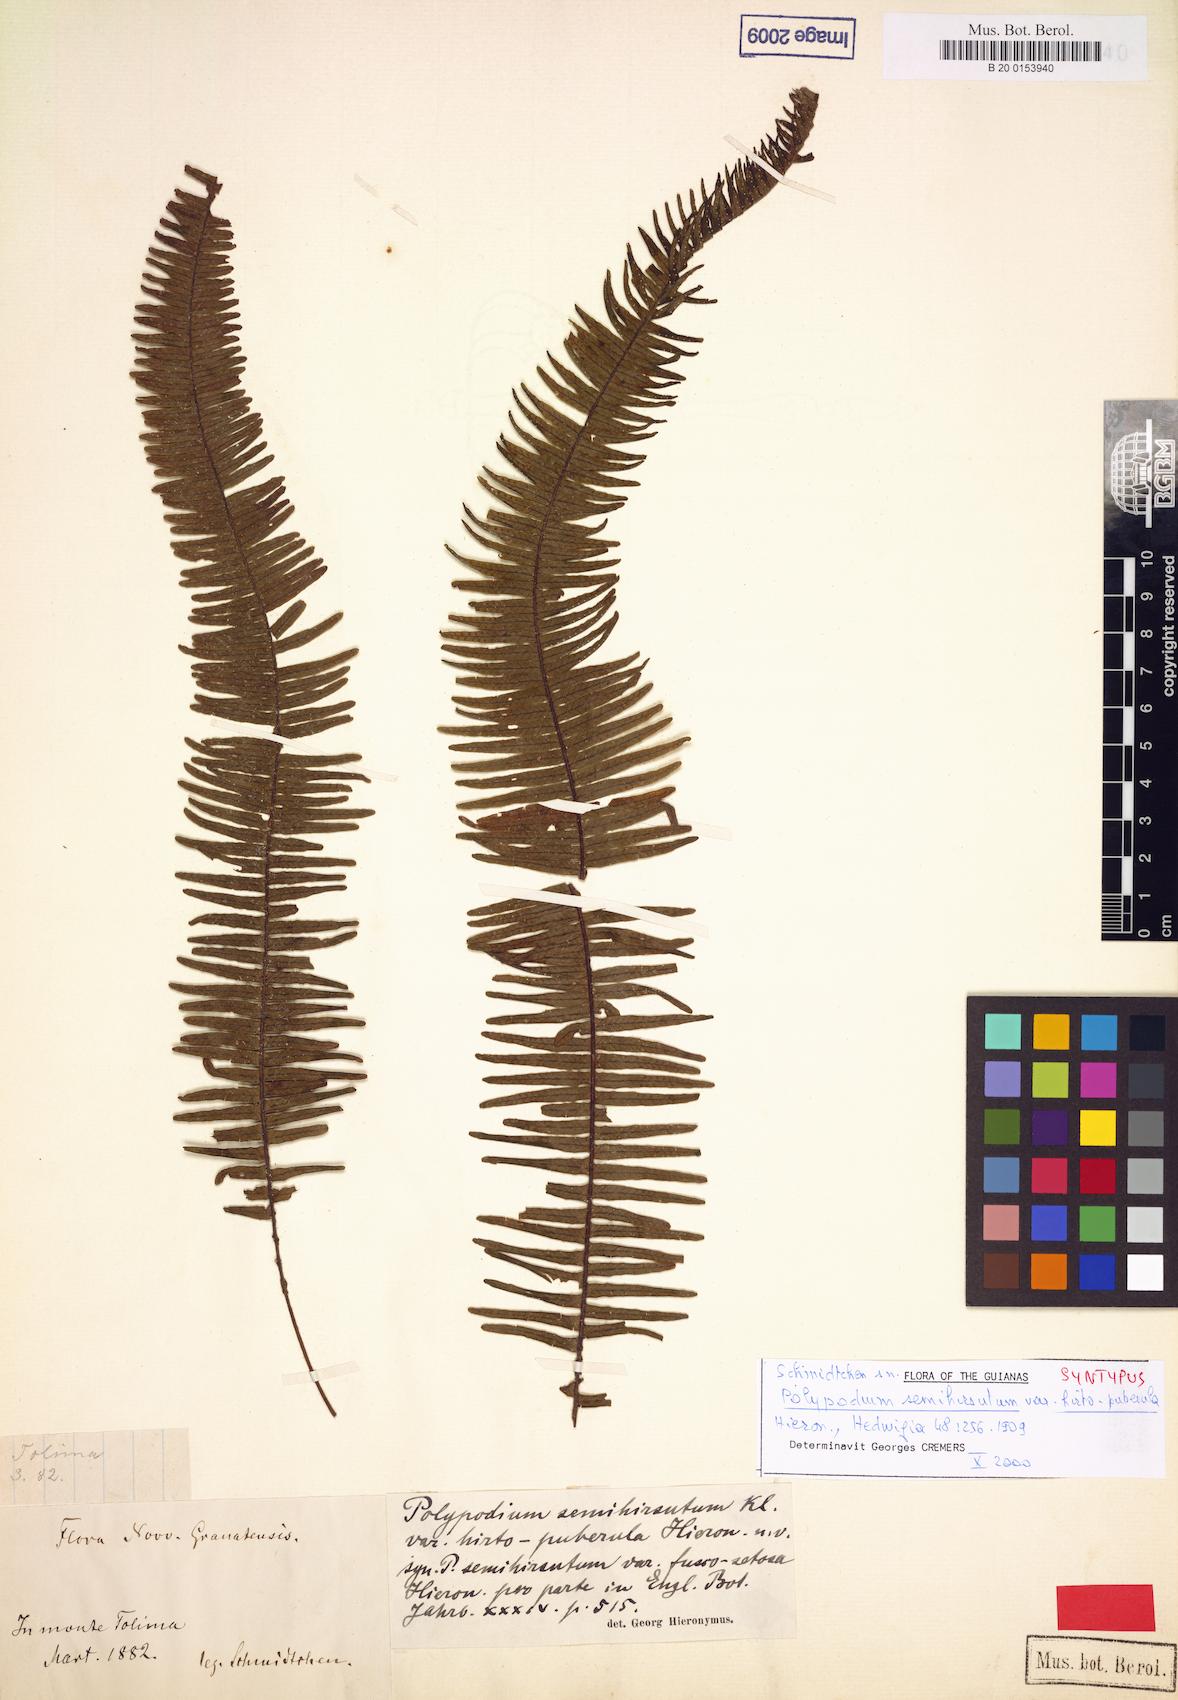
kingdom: Plantae
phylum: Tracheophyta
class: Polypodiopsida
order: Polypodiales
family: Polypodiaceae
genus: Mycopteris
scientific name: Mycopteris alsopteris
